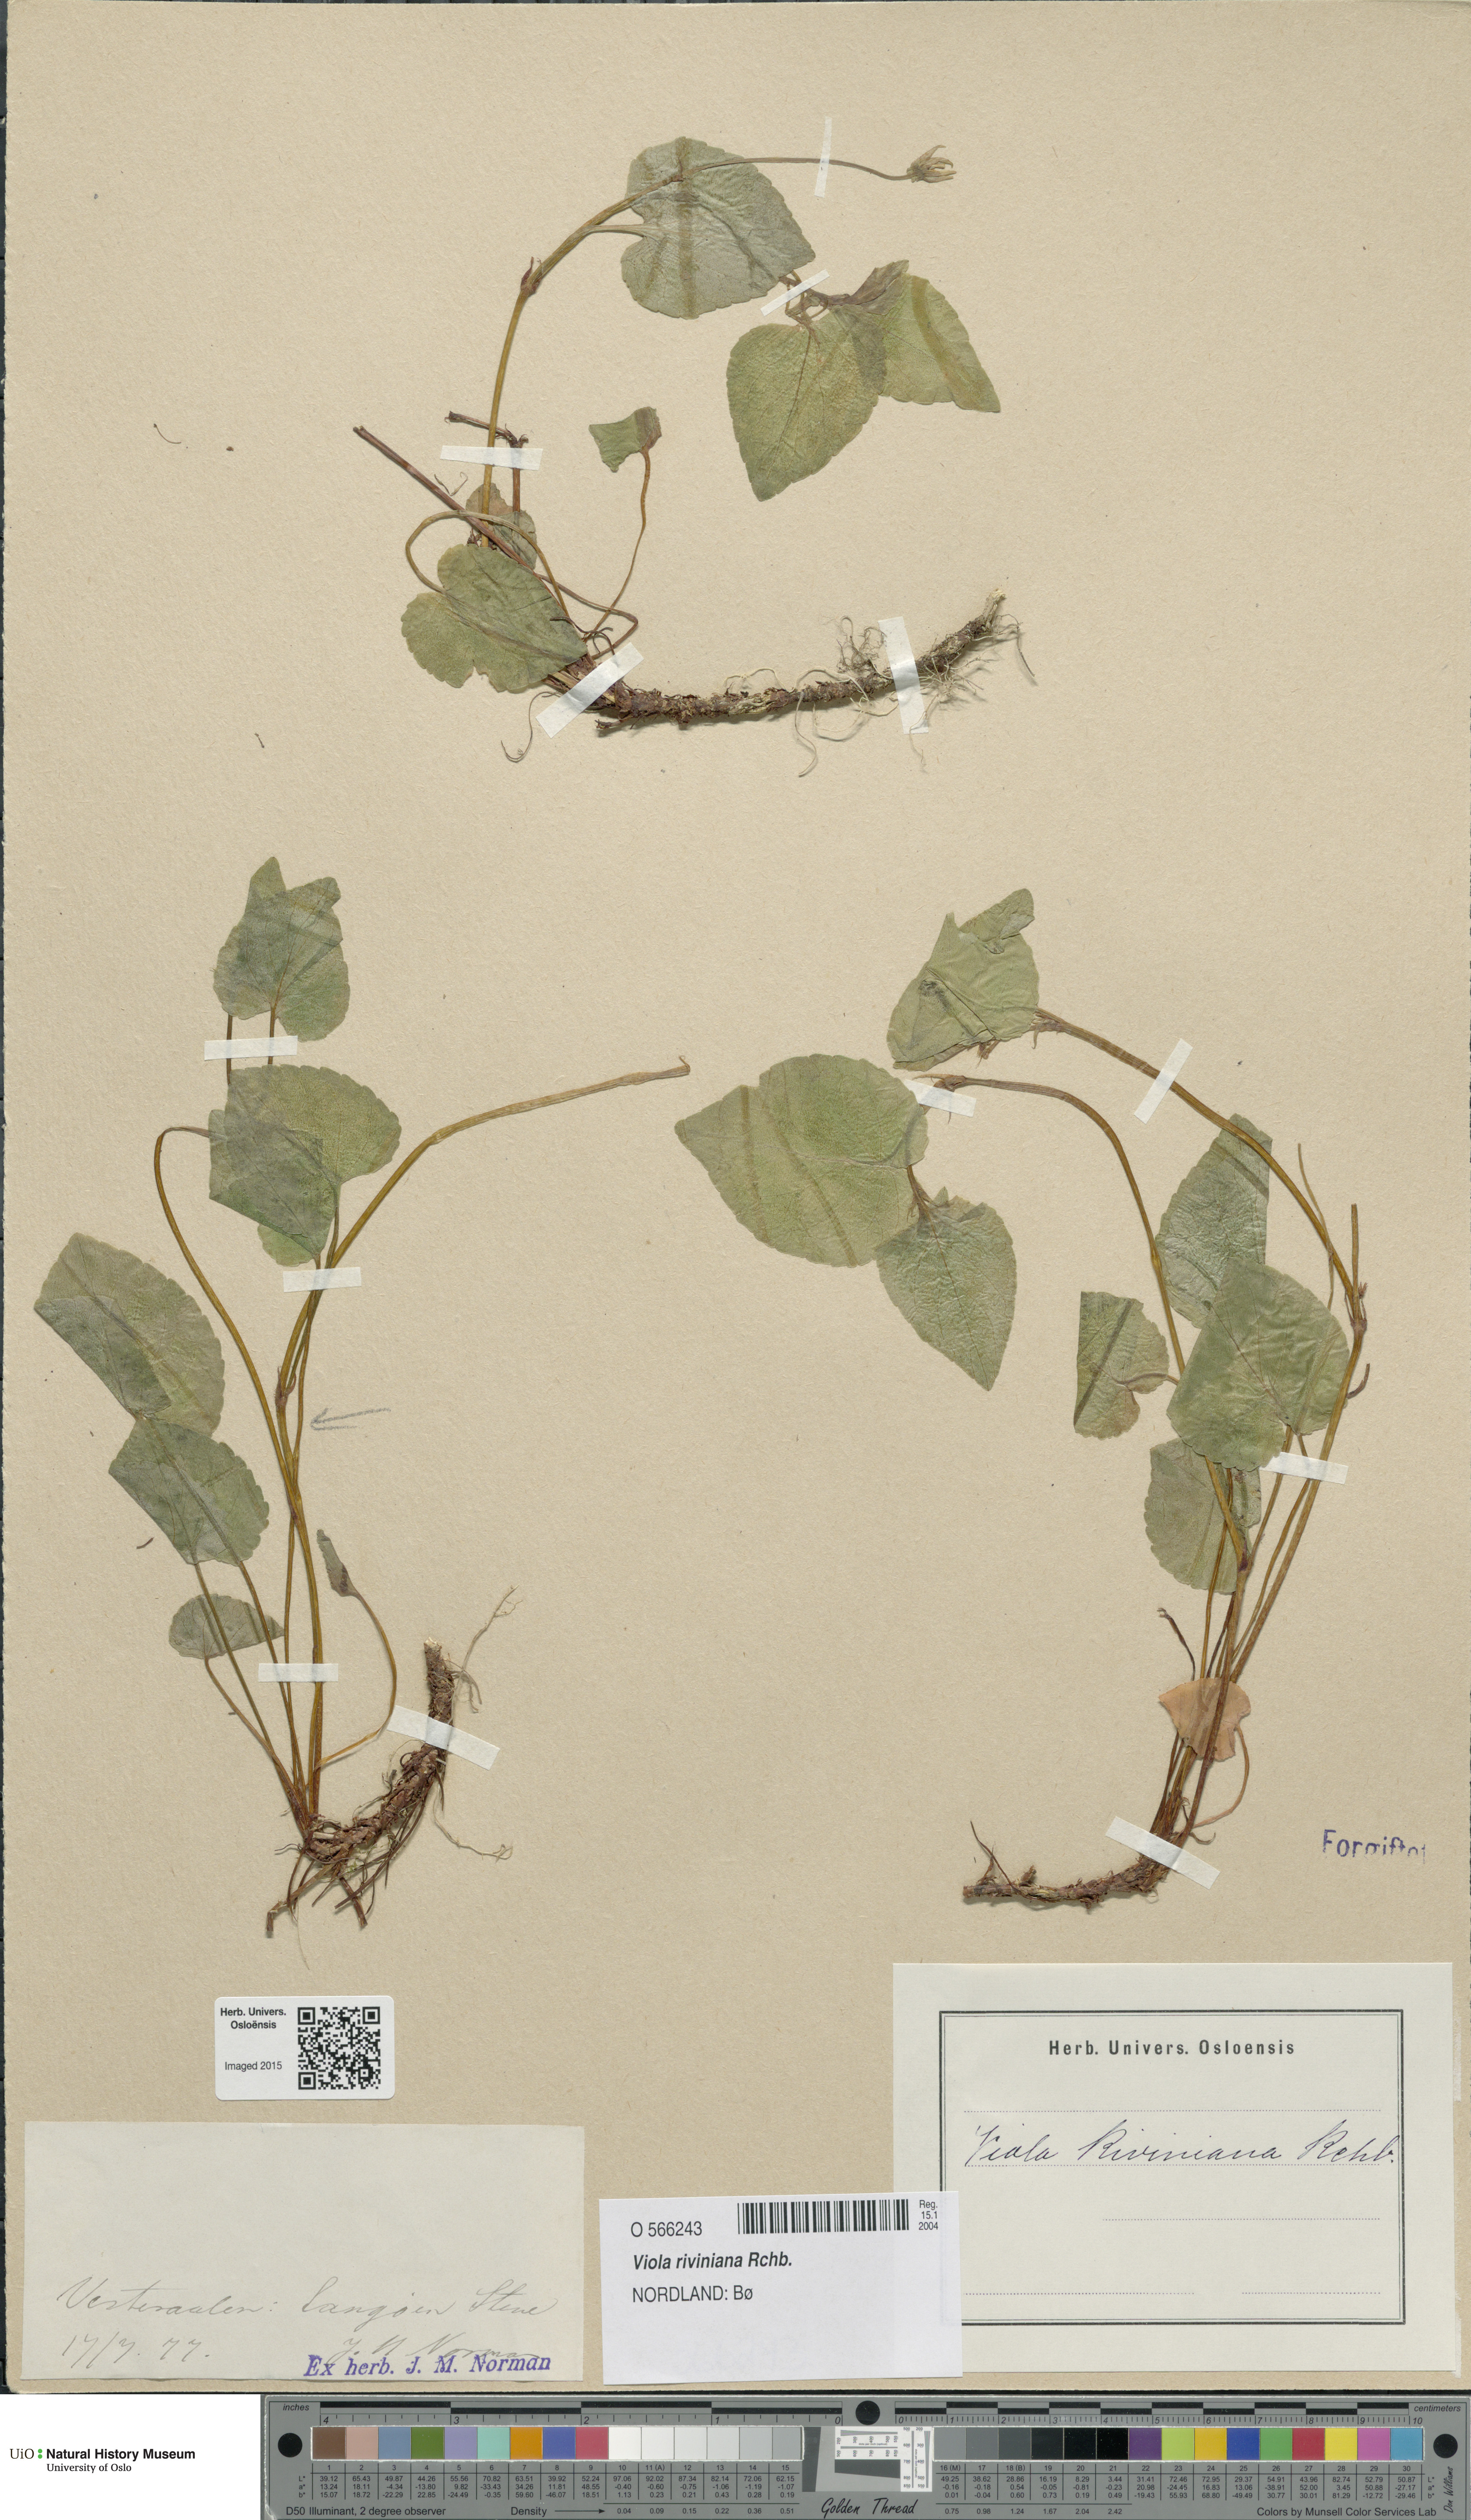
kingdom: Plantae
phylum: Tracheophyta
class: Magnoliopsida
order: Malpighiales
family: Violaceae
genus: Viola
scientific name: Viola riviniana
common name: Common dog-violet
